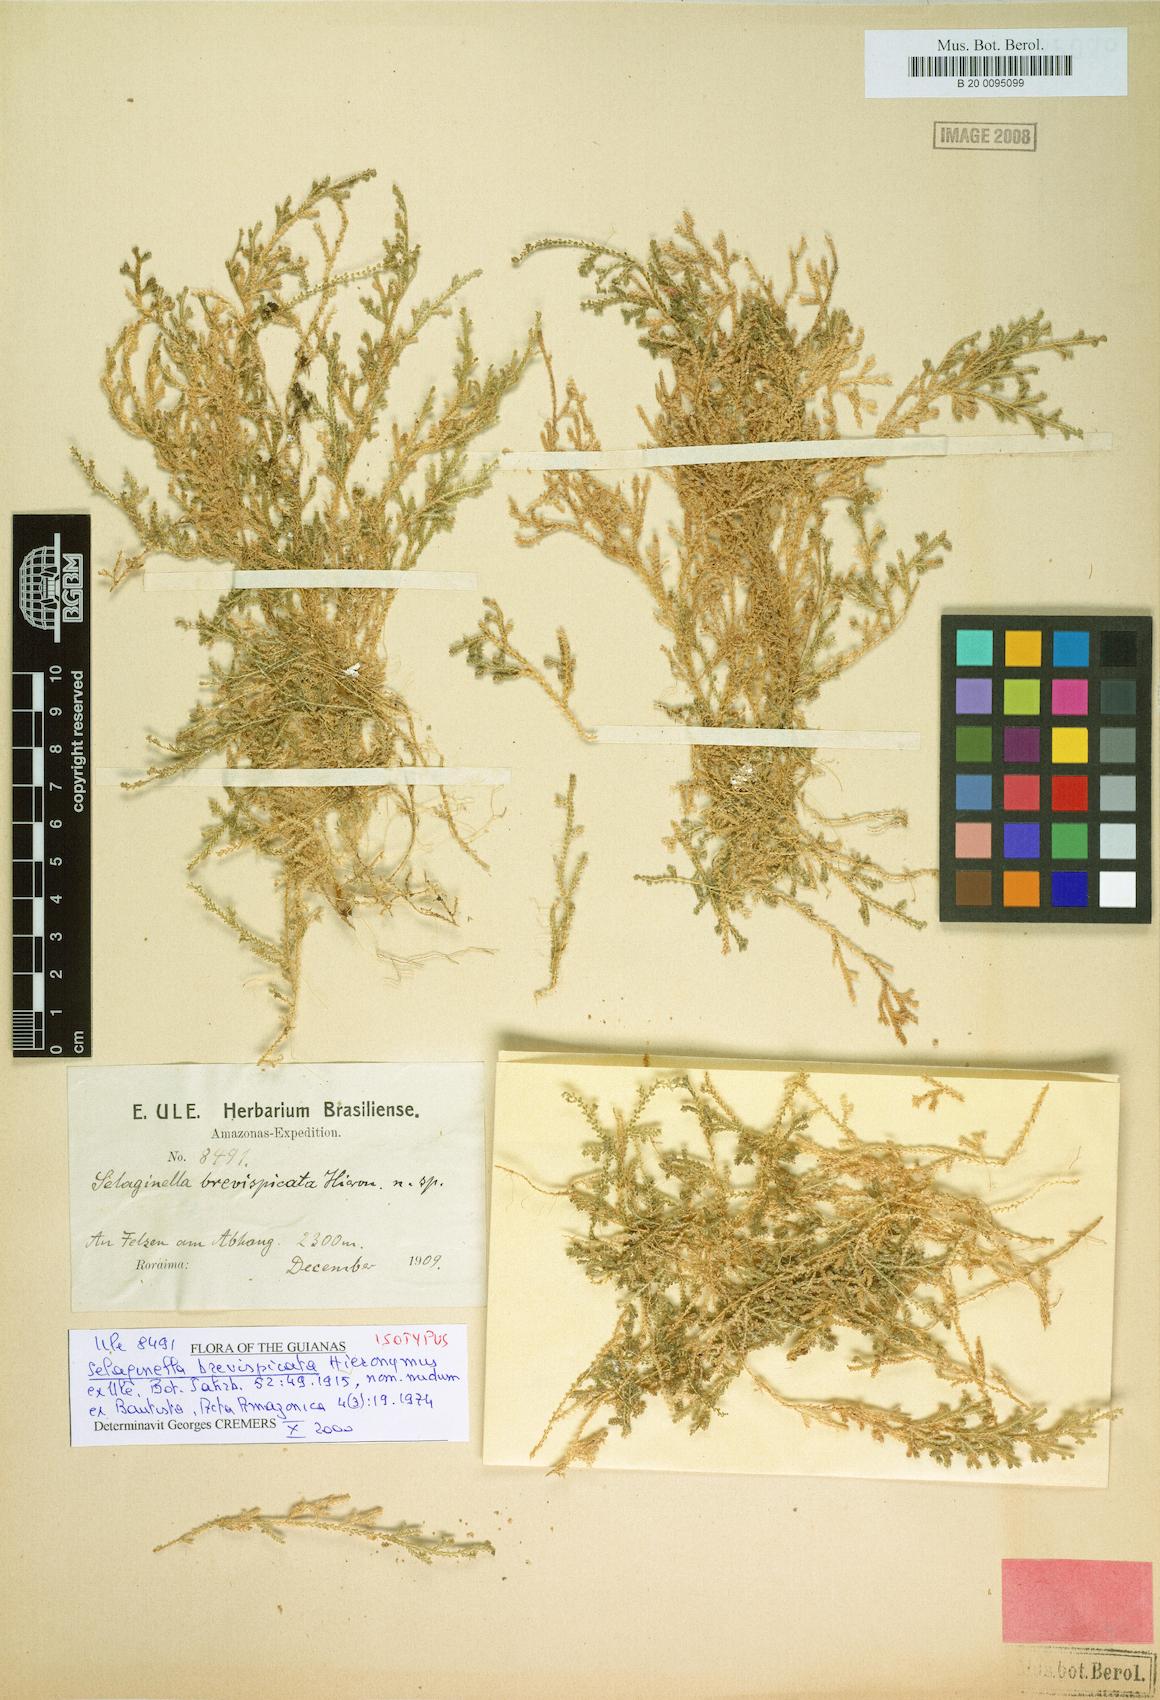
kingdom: Plantae
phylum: Tracheophyta
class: Lycopodiopsida
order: Selaginellales
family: Selaginellaceae
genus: Selaginella
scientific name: Selaginella rhodostachya
